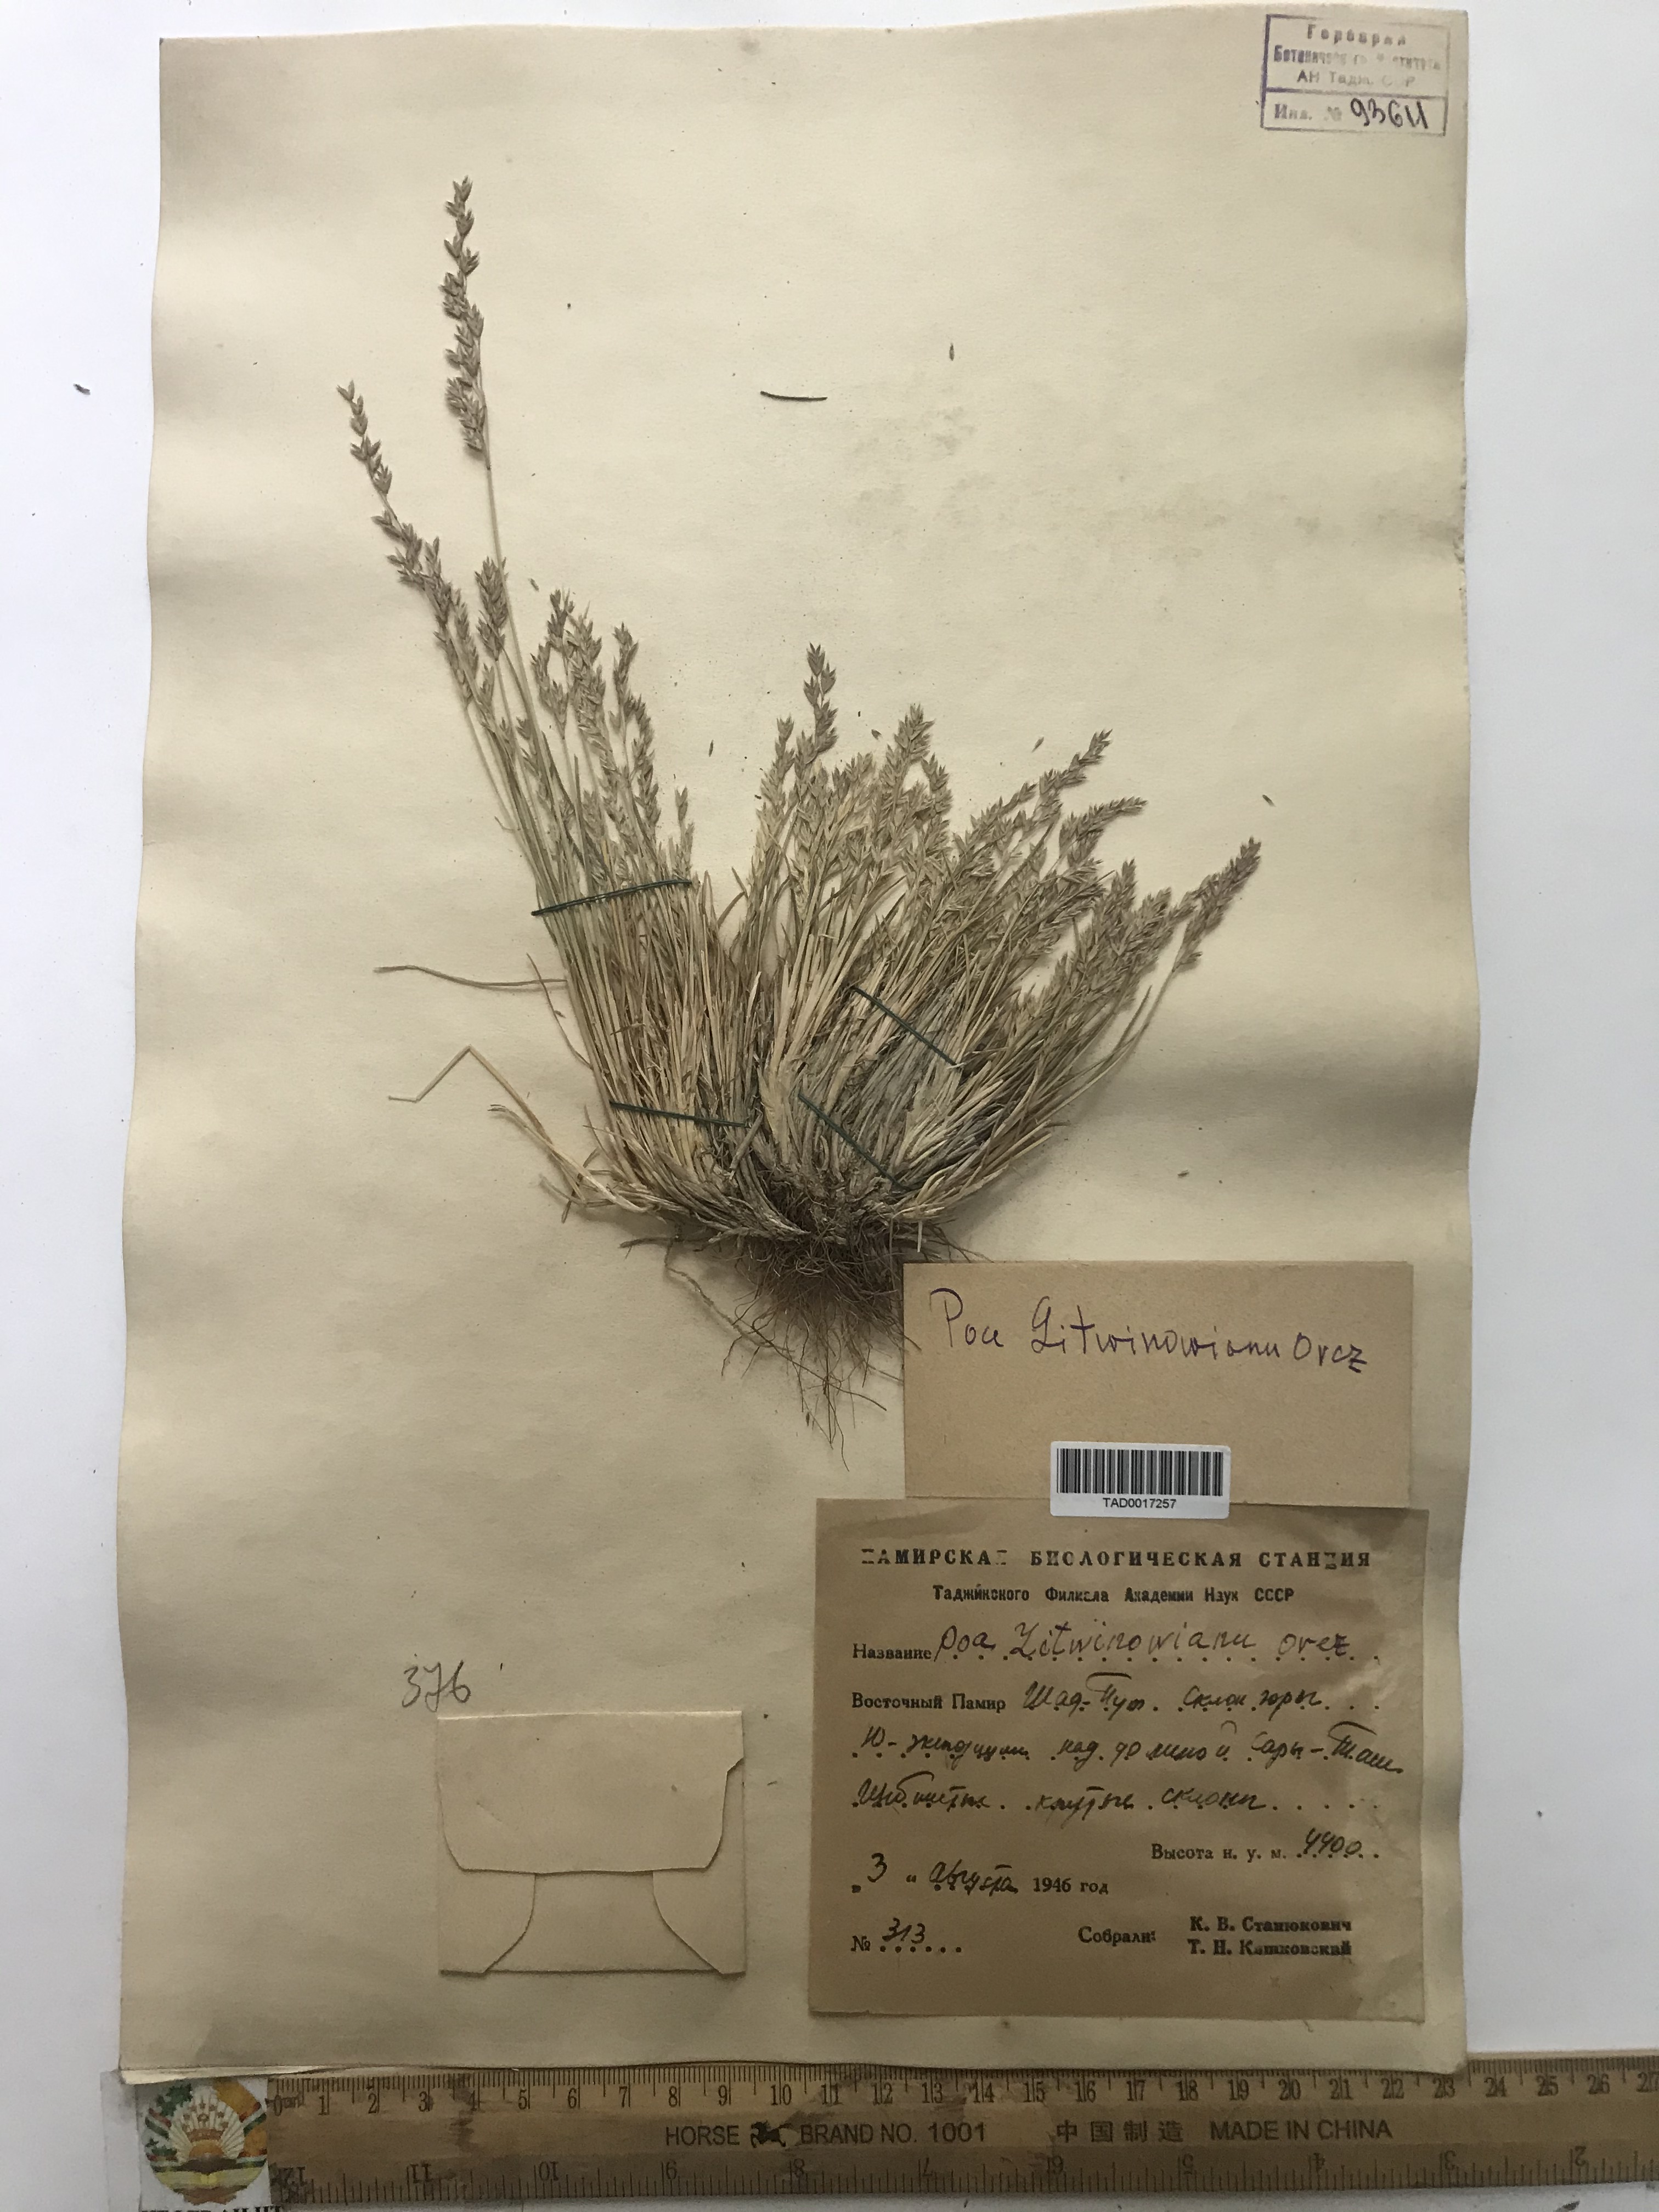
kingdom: Plantae
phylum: Tracheophyta
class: Liliopsida
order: Poales
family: Poaceae
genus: Poa
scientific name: Poa glauca
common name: Glaucous bluegrass
